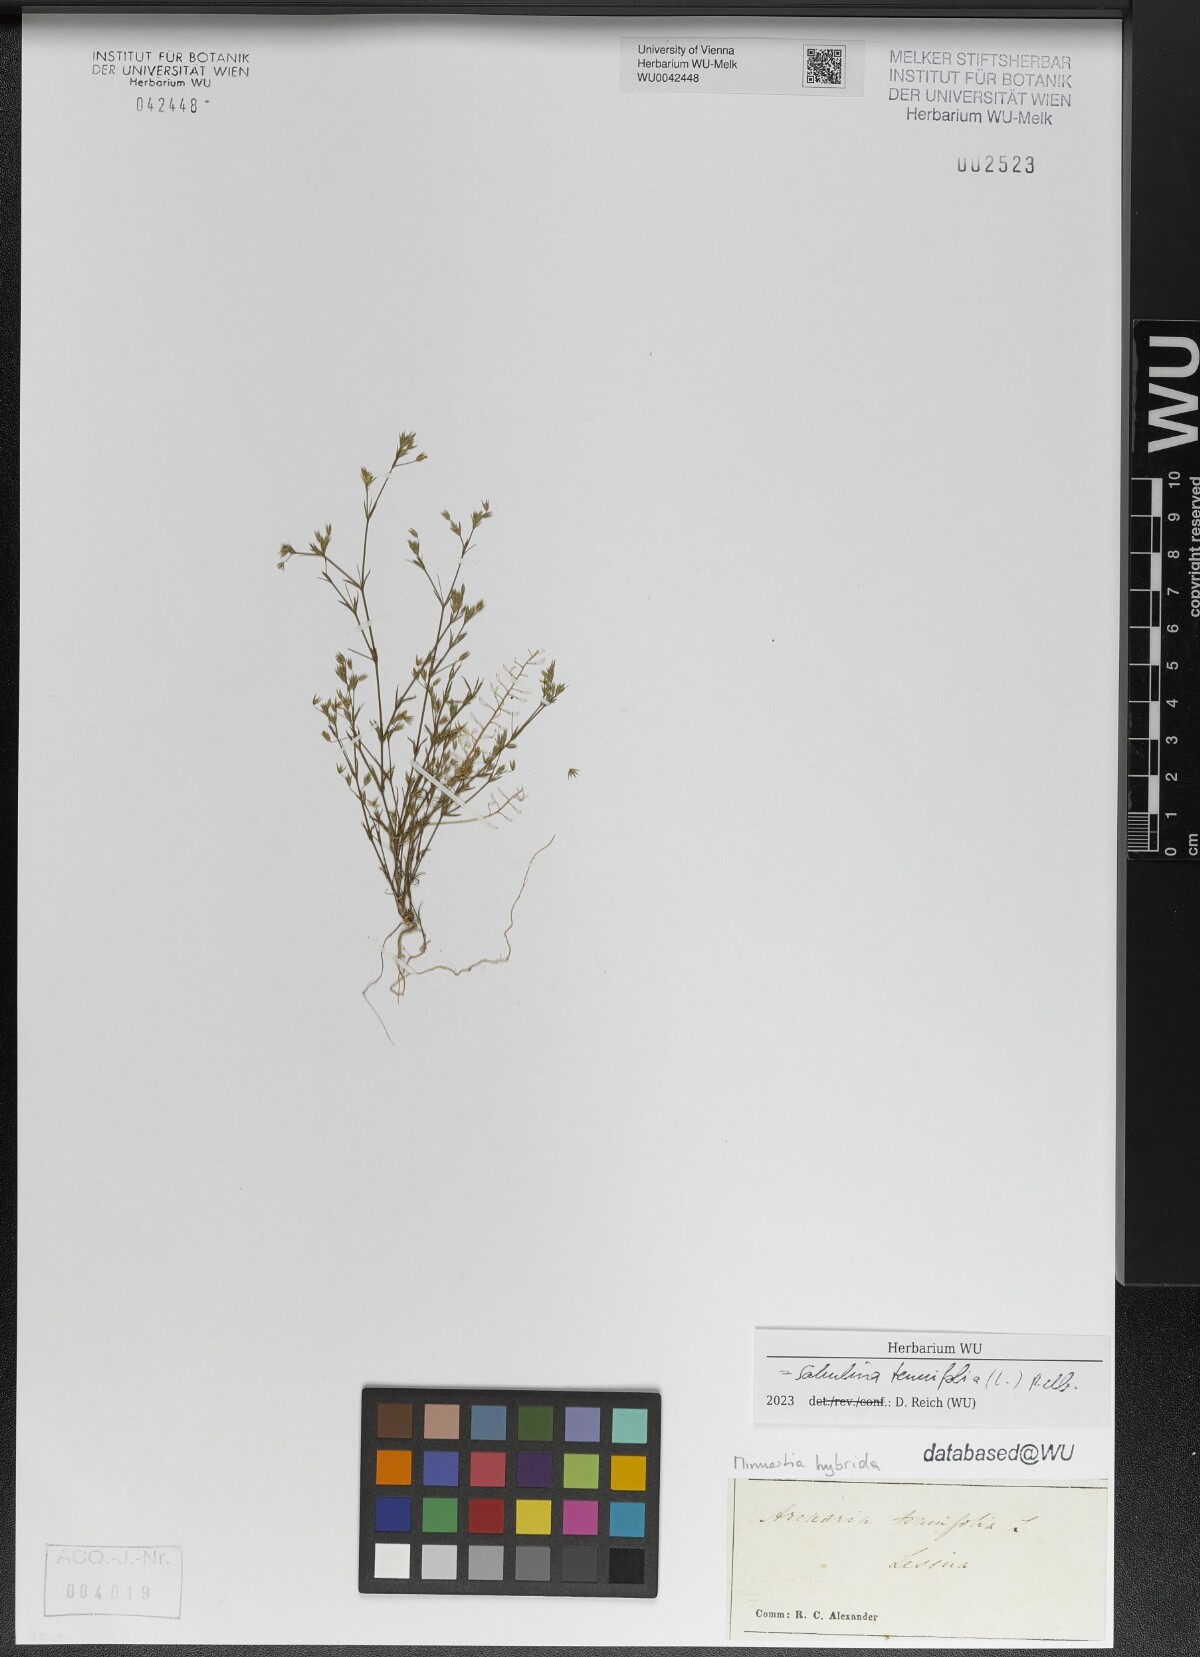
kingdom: Plantae
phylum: Tracheophyta
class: Magnoliopsida
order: Caryophyllales
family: Caryophyllaceae
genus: Sabulina
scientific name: Sabulina tenuifolia
